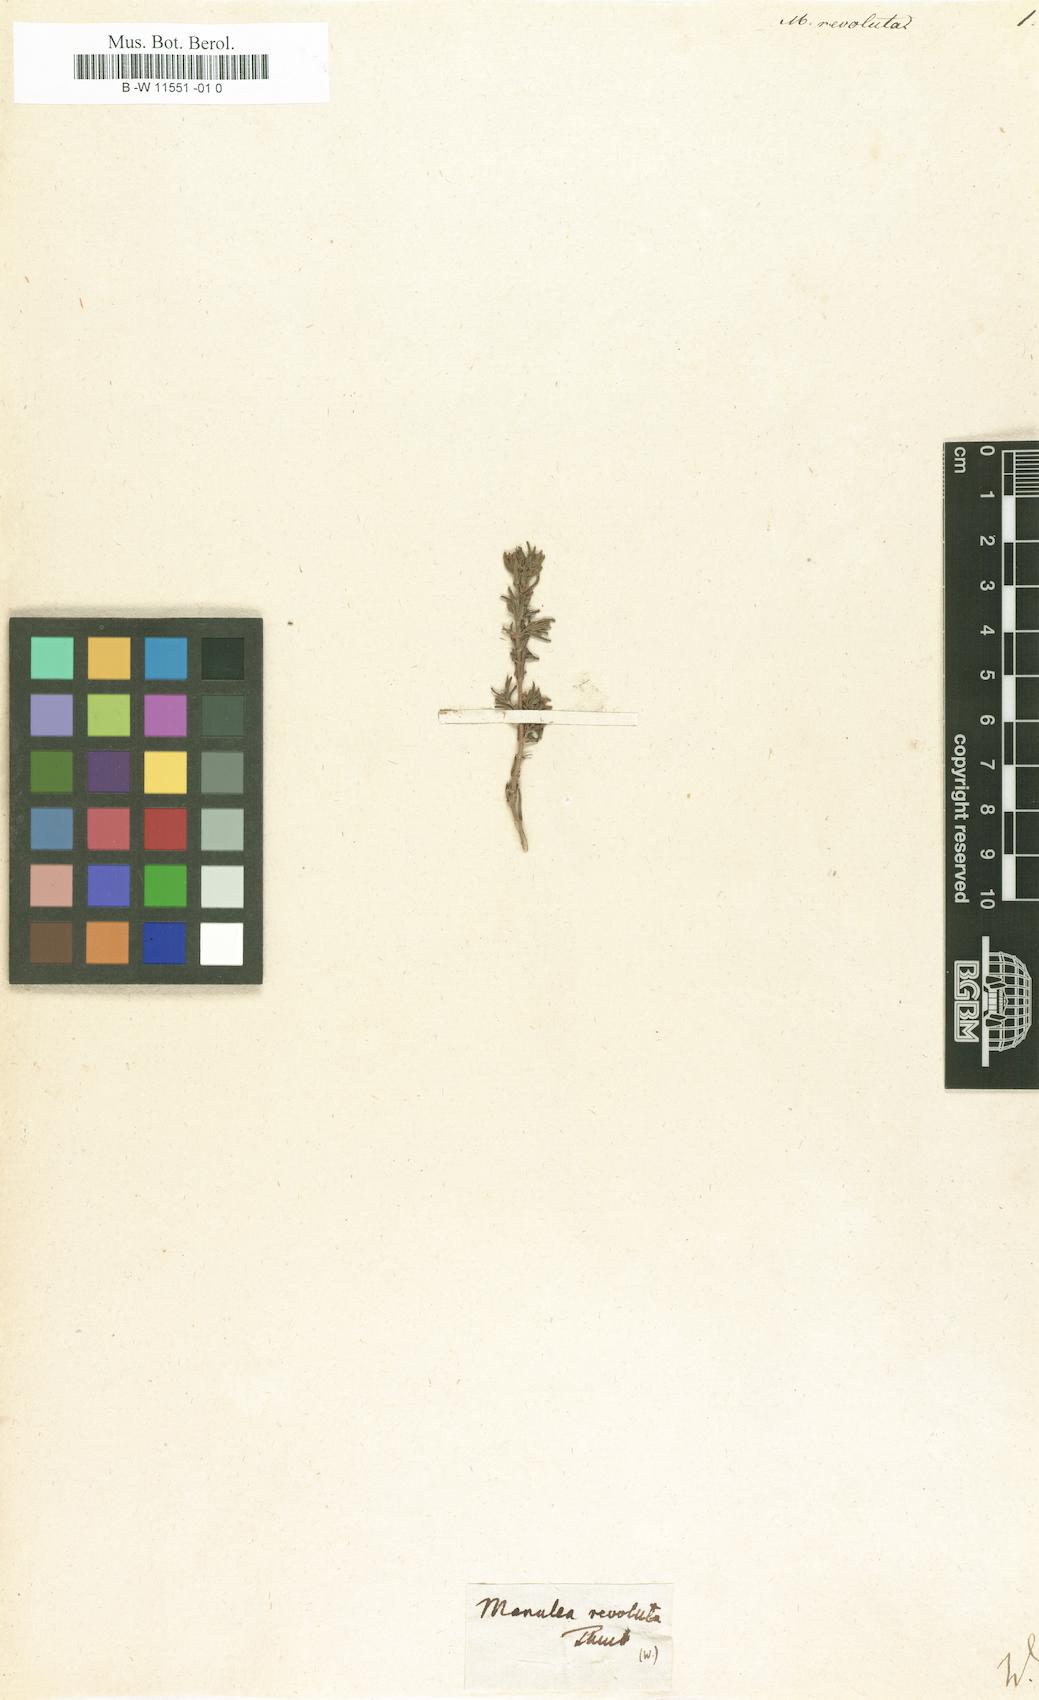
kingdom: Plantae
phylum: Tracheophyta
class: Magnoliopsida
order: Lamiales
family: Scrophulariaceae
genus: Chaenostoma
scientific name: Chaenostoma revolutum
